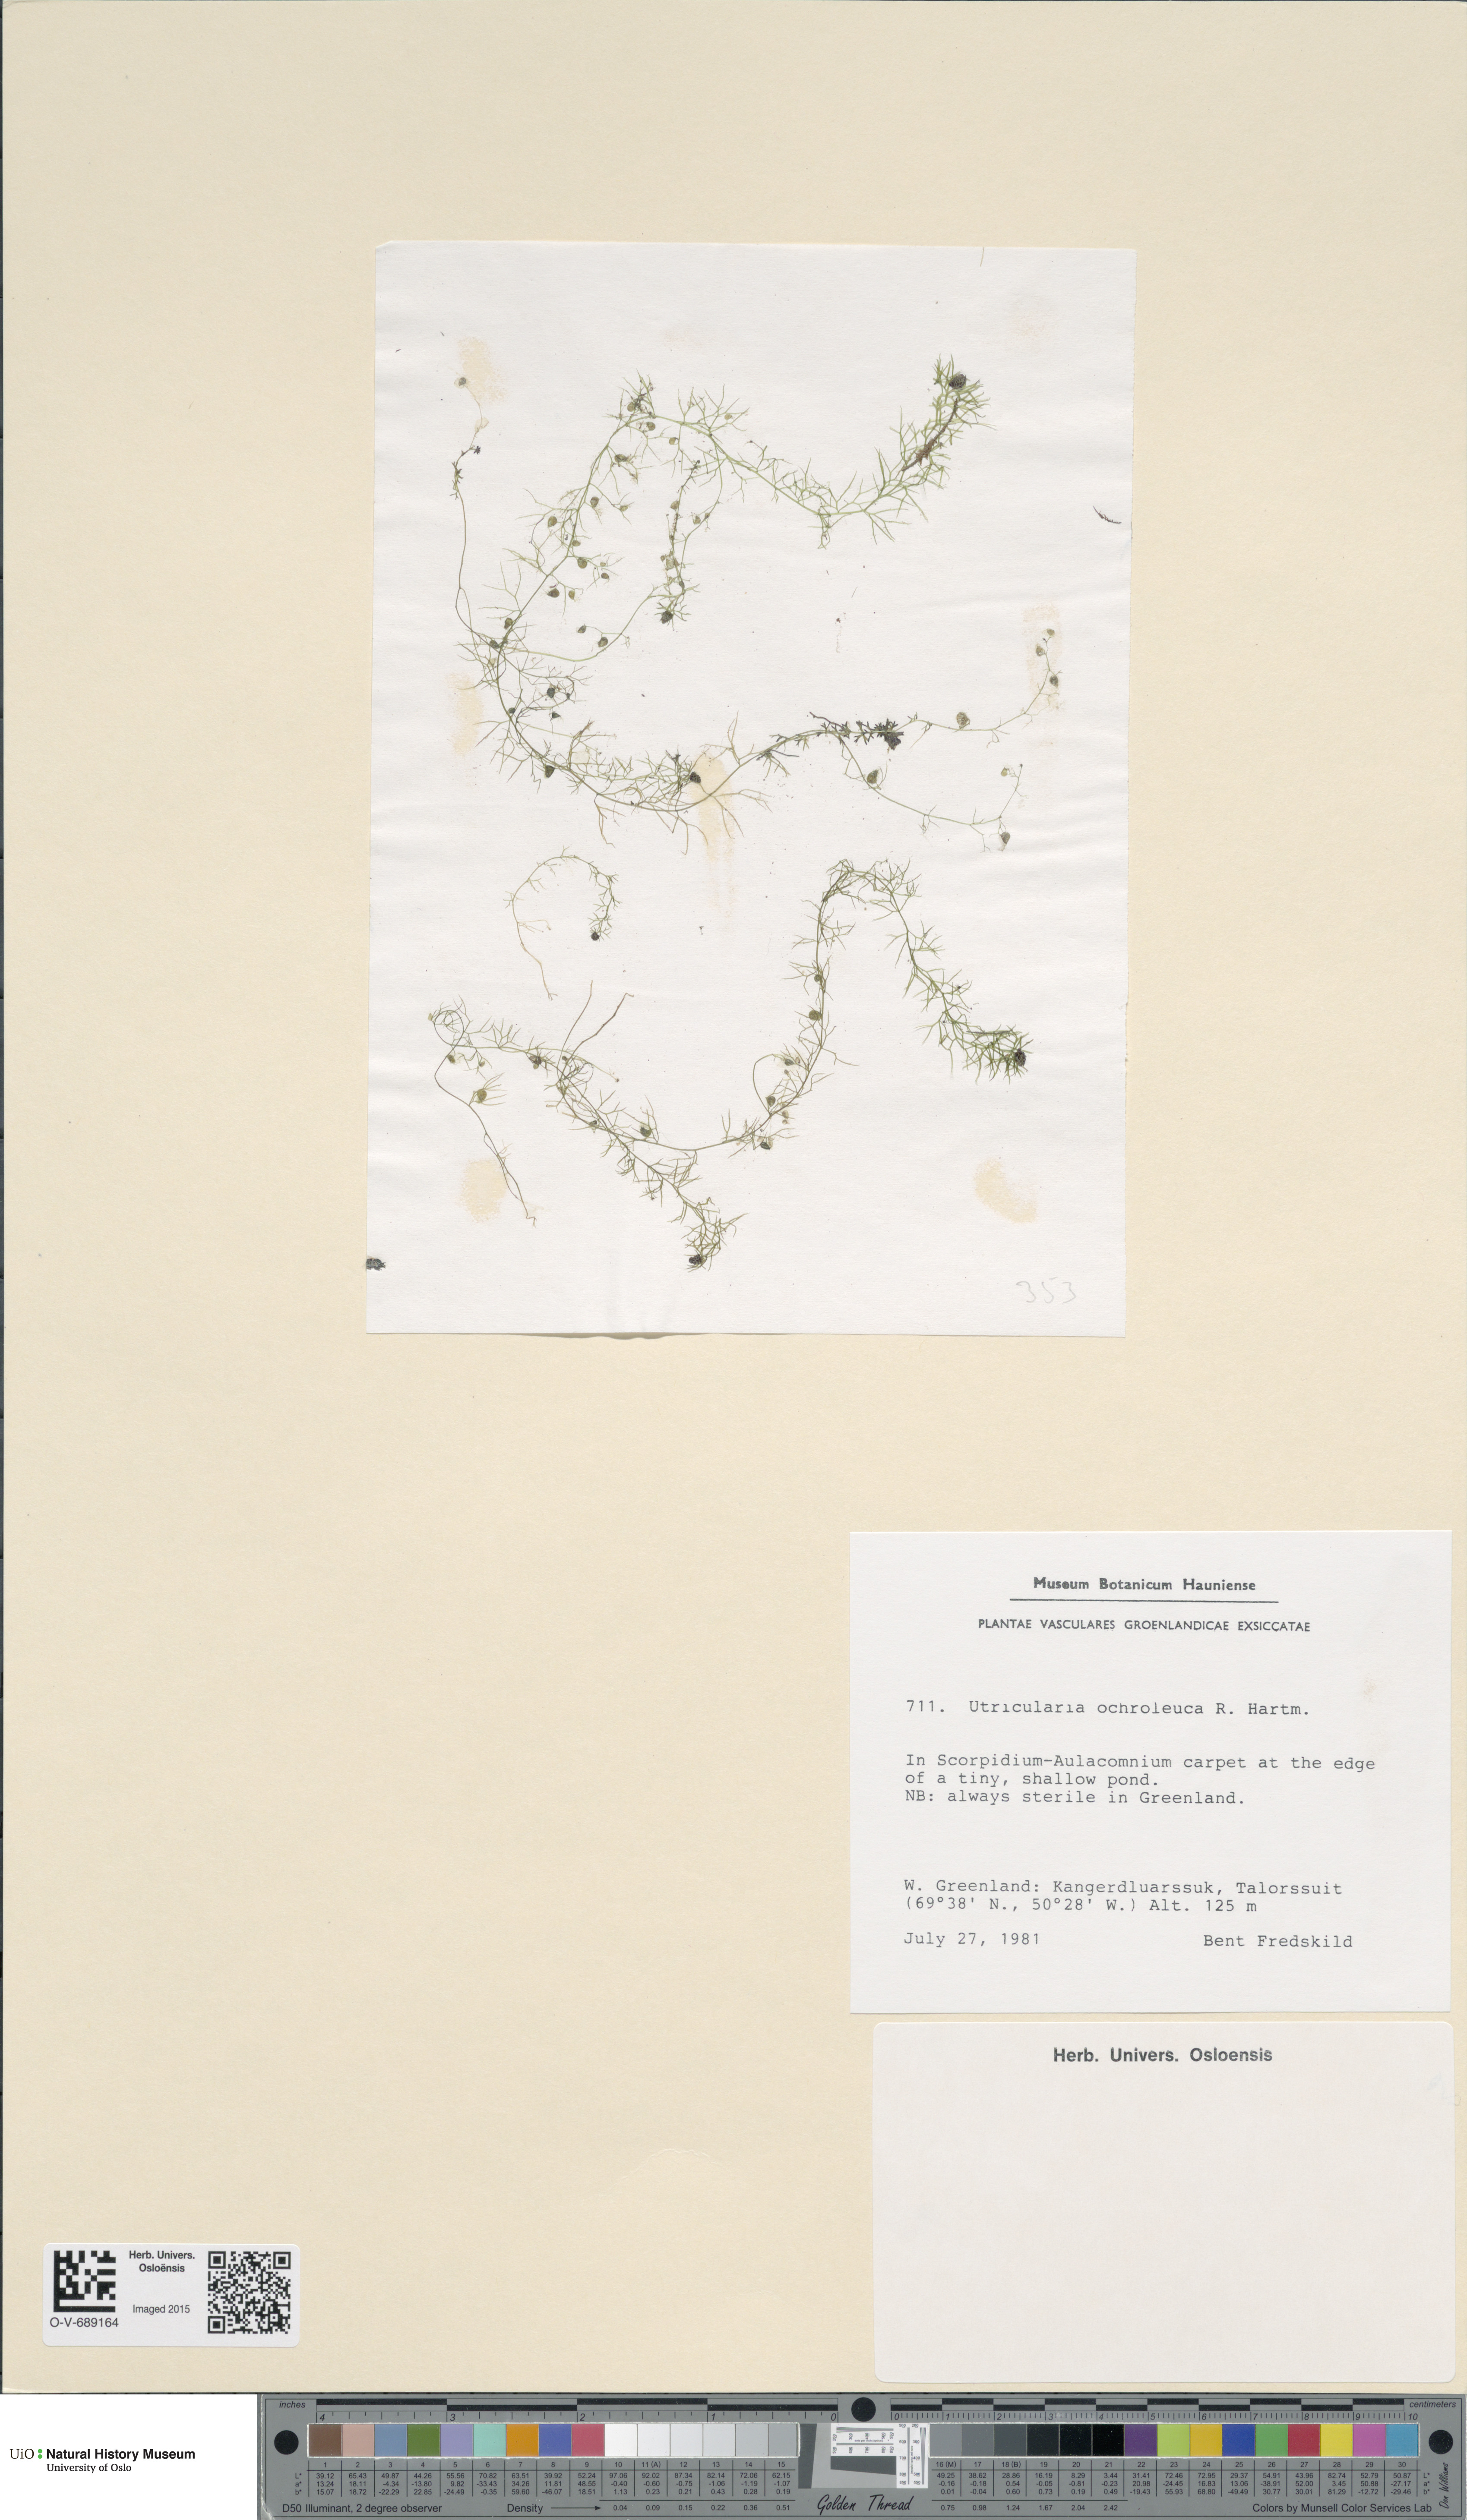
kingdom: Plantae
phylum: Tracheophyta
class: Magnoliopsida
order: Lamiales
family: Lentibulariaceae
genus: Utricularia
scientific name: Utricularia ochroleuca
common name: Pale bladderwort
